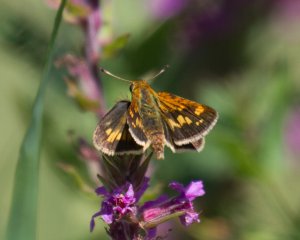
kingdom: Animalia
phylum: Arthropoda
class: Insecta
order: Lepidoptera
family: Hesperiidae
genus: Polites
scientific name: Polites coras
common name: Peck's Skipper
